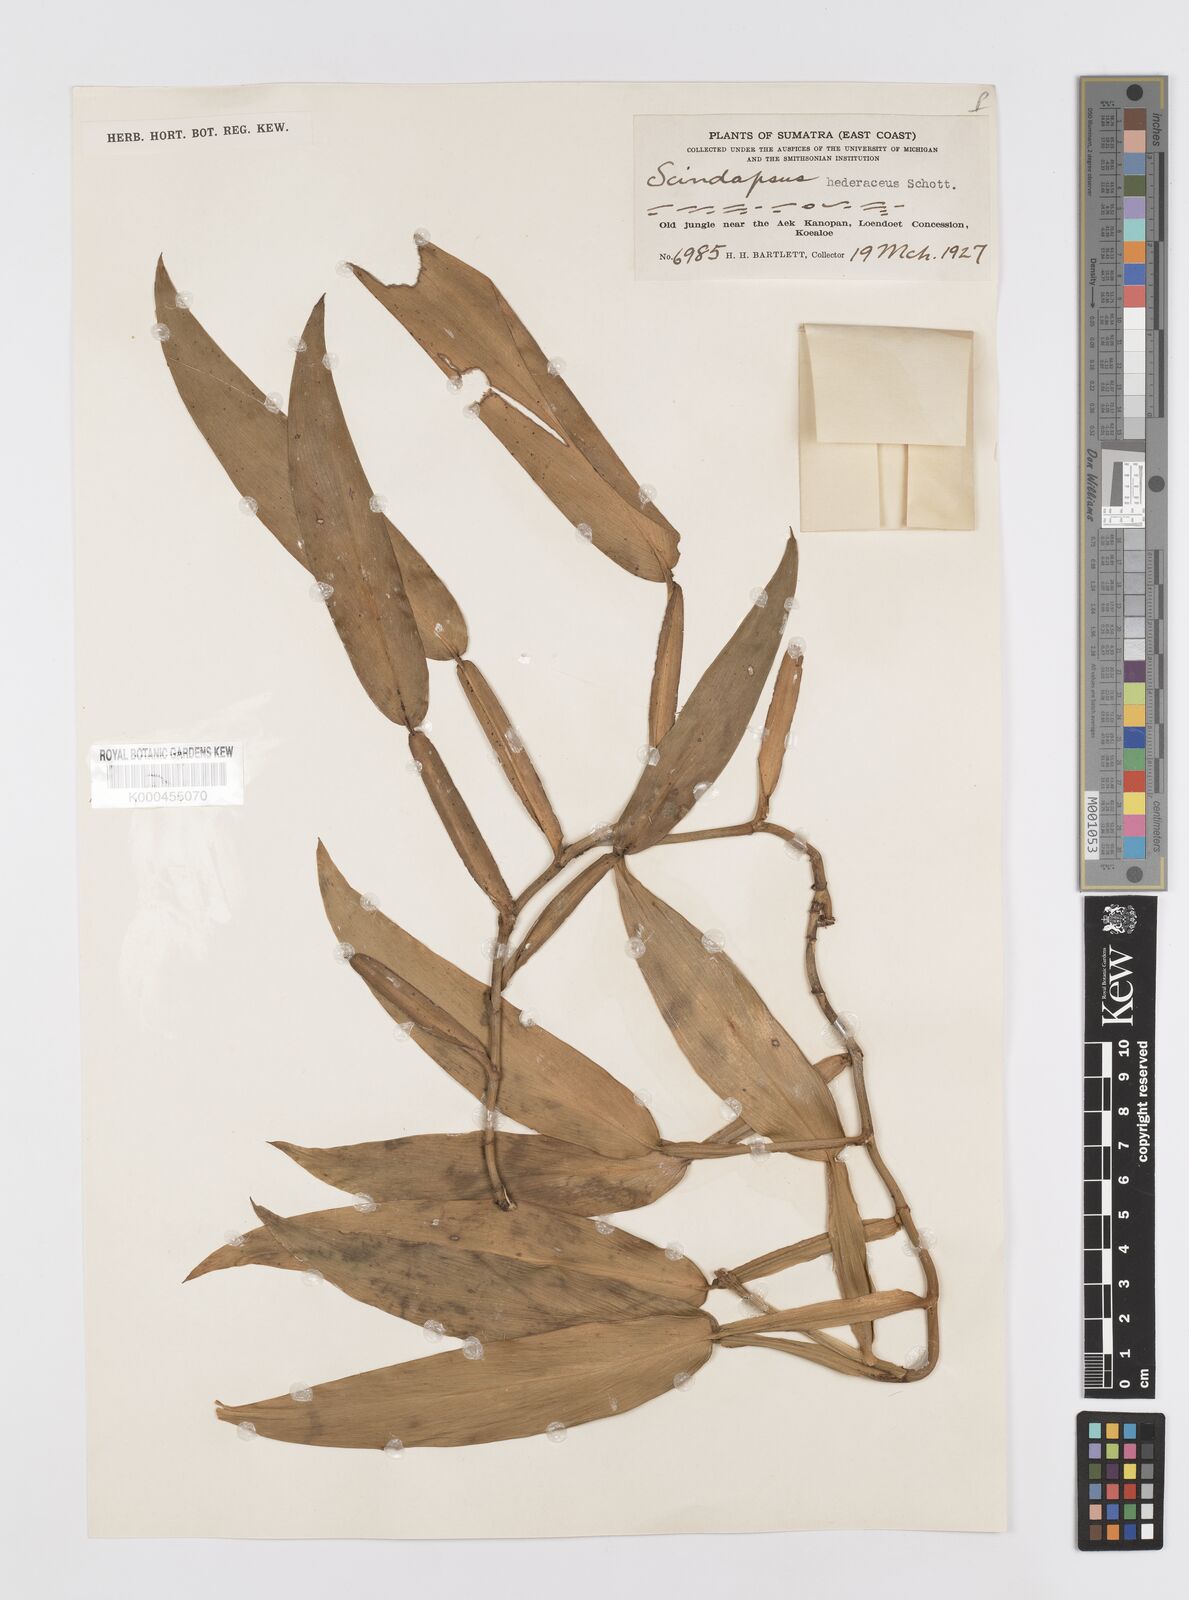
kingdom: Plantae
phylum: Tracheophyta
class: Liliopsida
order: Alismatales
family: Araceae
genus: Scindapsus
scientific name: Scindapsus hederaceus
